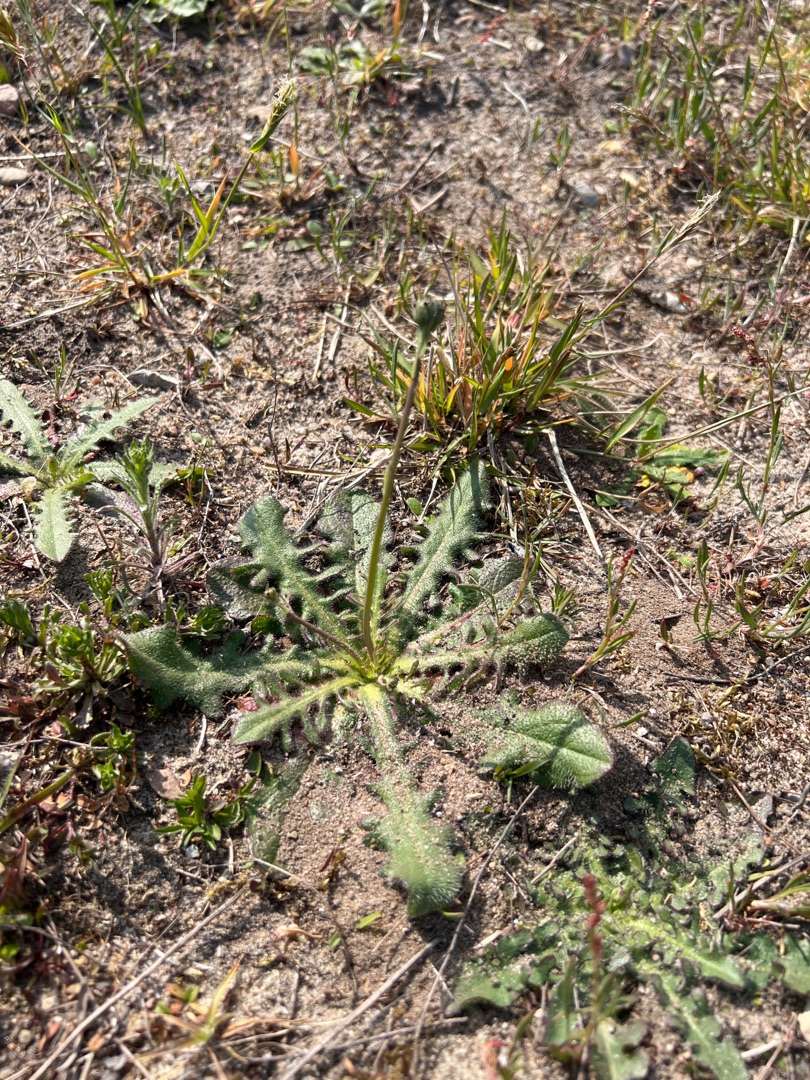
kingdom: Plantae
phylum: Tracheophyta
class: Magnoliopsida
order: Asterales
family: Asteraceae
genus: Hypochaeris
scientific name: Hypochaeris radicata
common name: Almindelig kongepen
